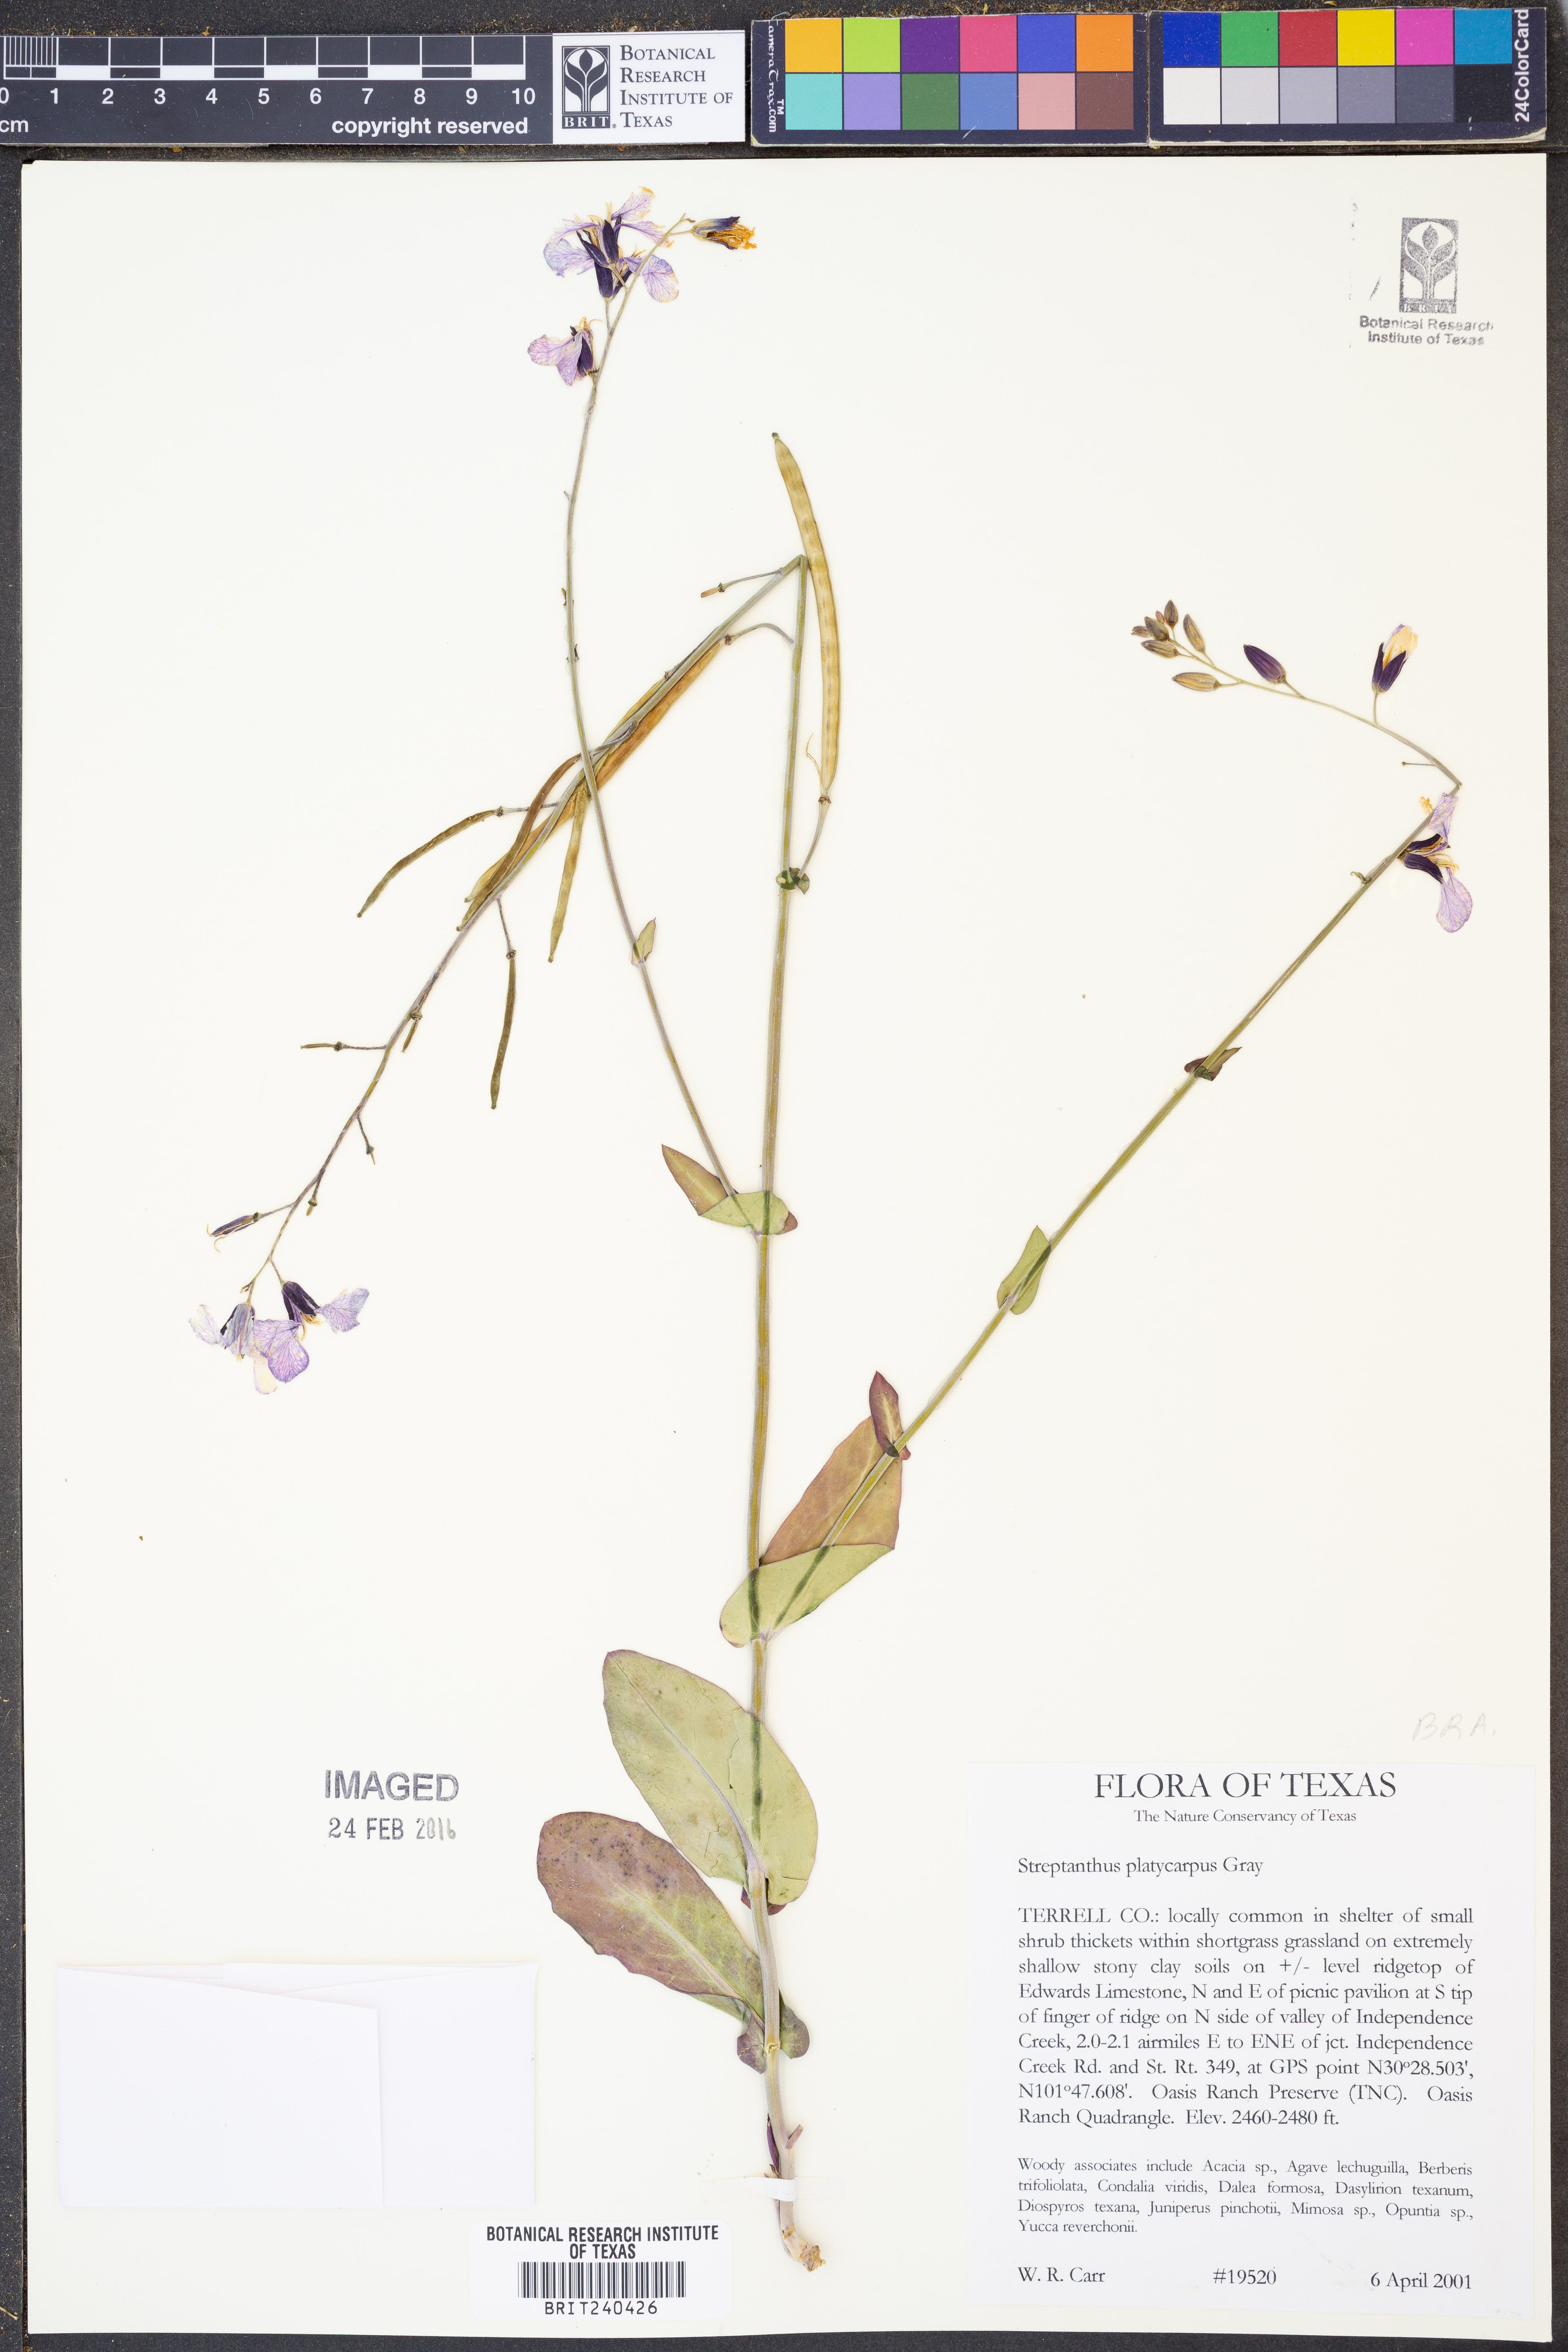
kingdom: Plantae
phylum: Tracheophyta
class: Magnoliopsida
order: Brassicales
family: Brassicaceae
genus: Streptanthus
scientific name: Streptanthus platycarpus
